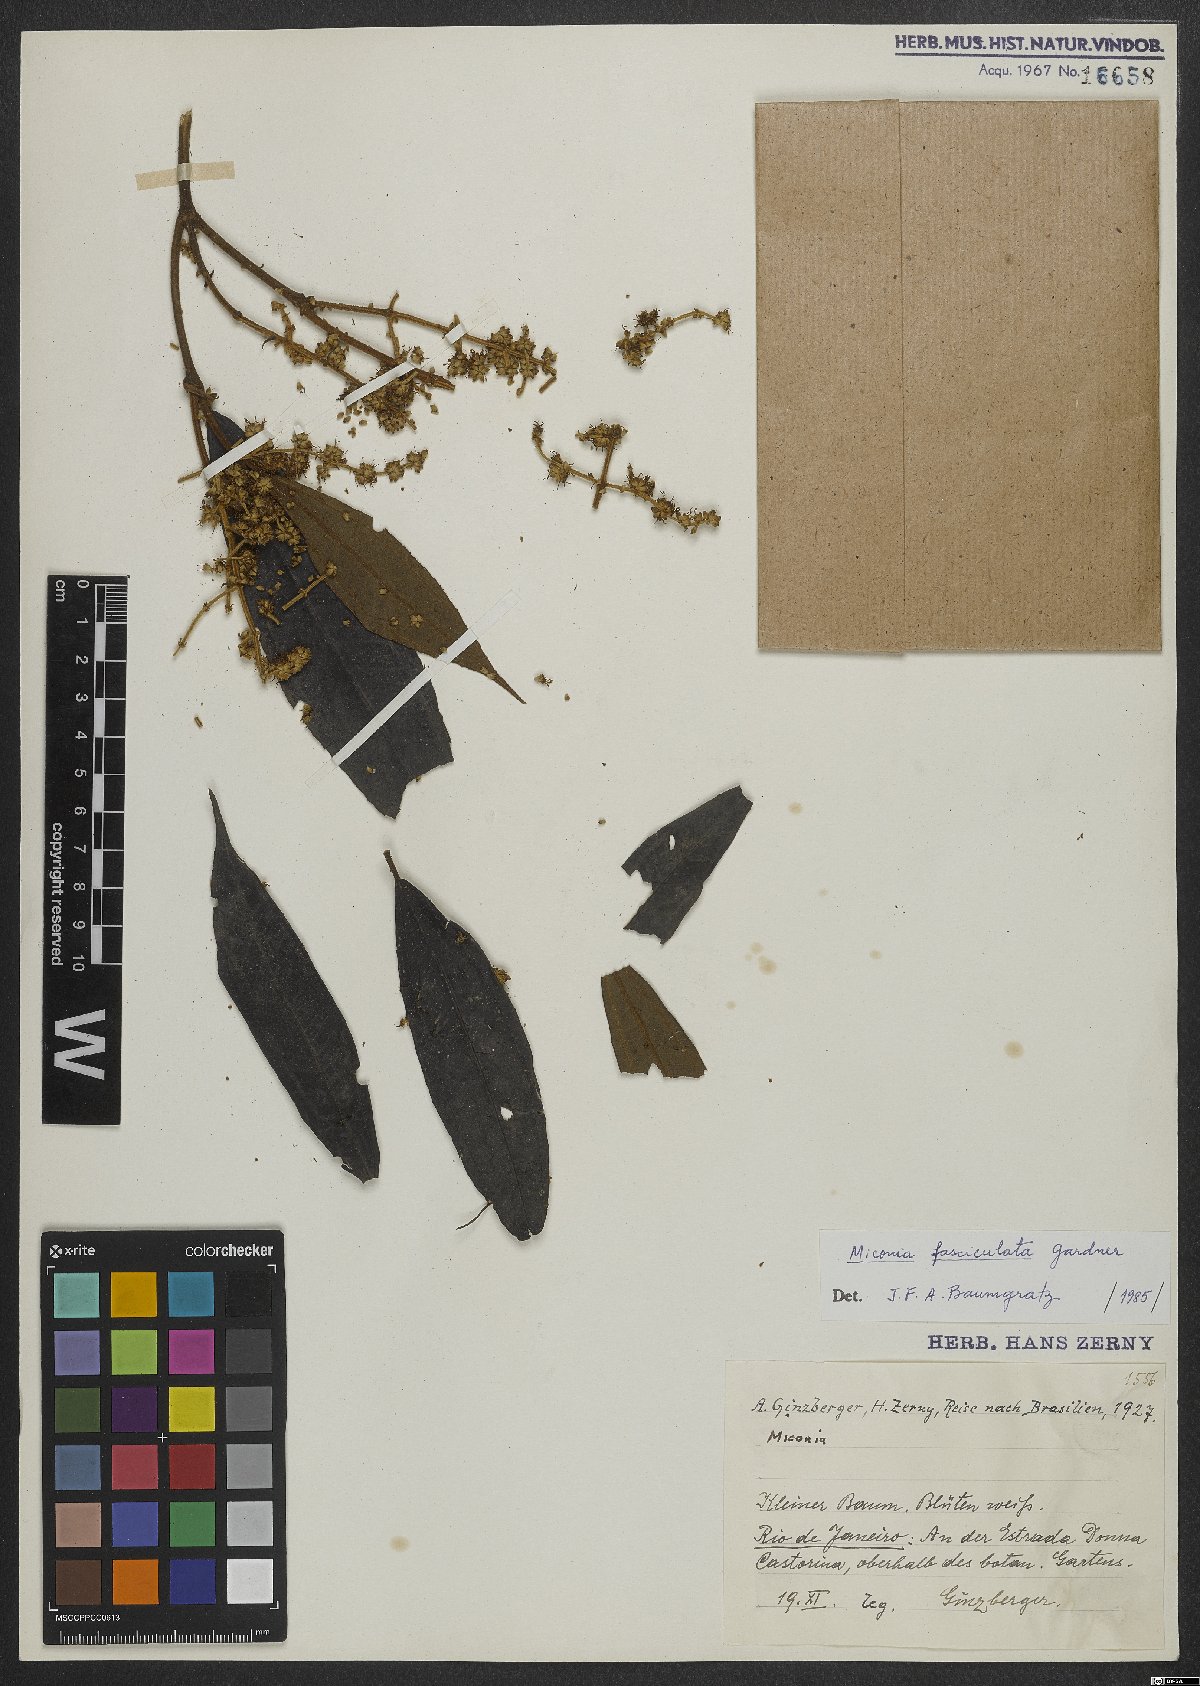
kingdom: Plantae
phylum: Tracheophyta
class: Magnoliopsida
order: Myrtales
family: Melastomataceae
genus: Miconia
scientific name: Miconia fasciculata
